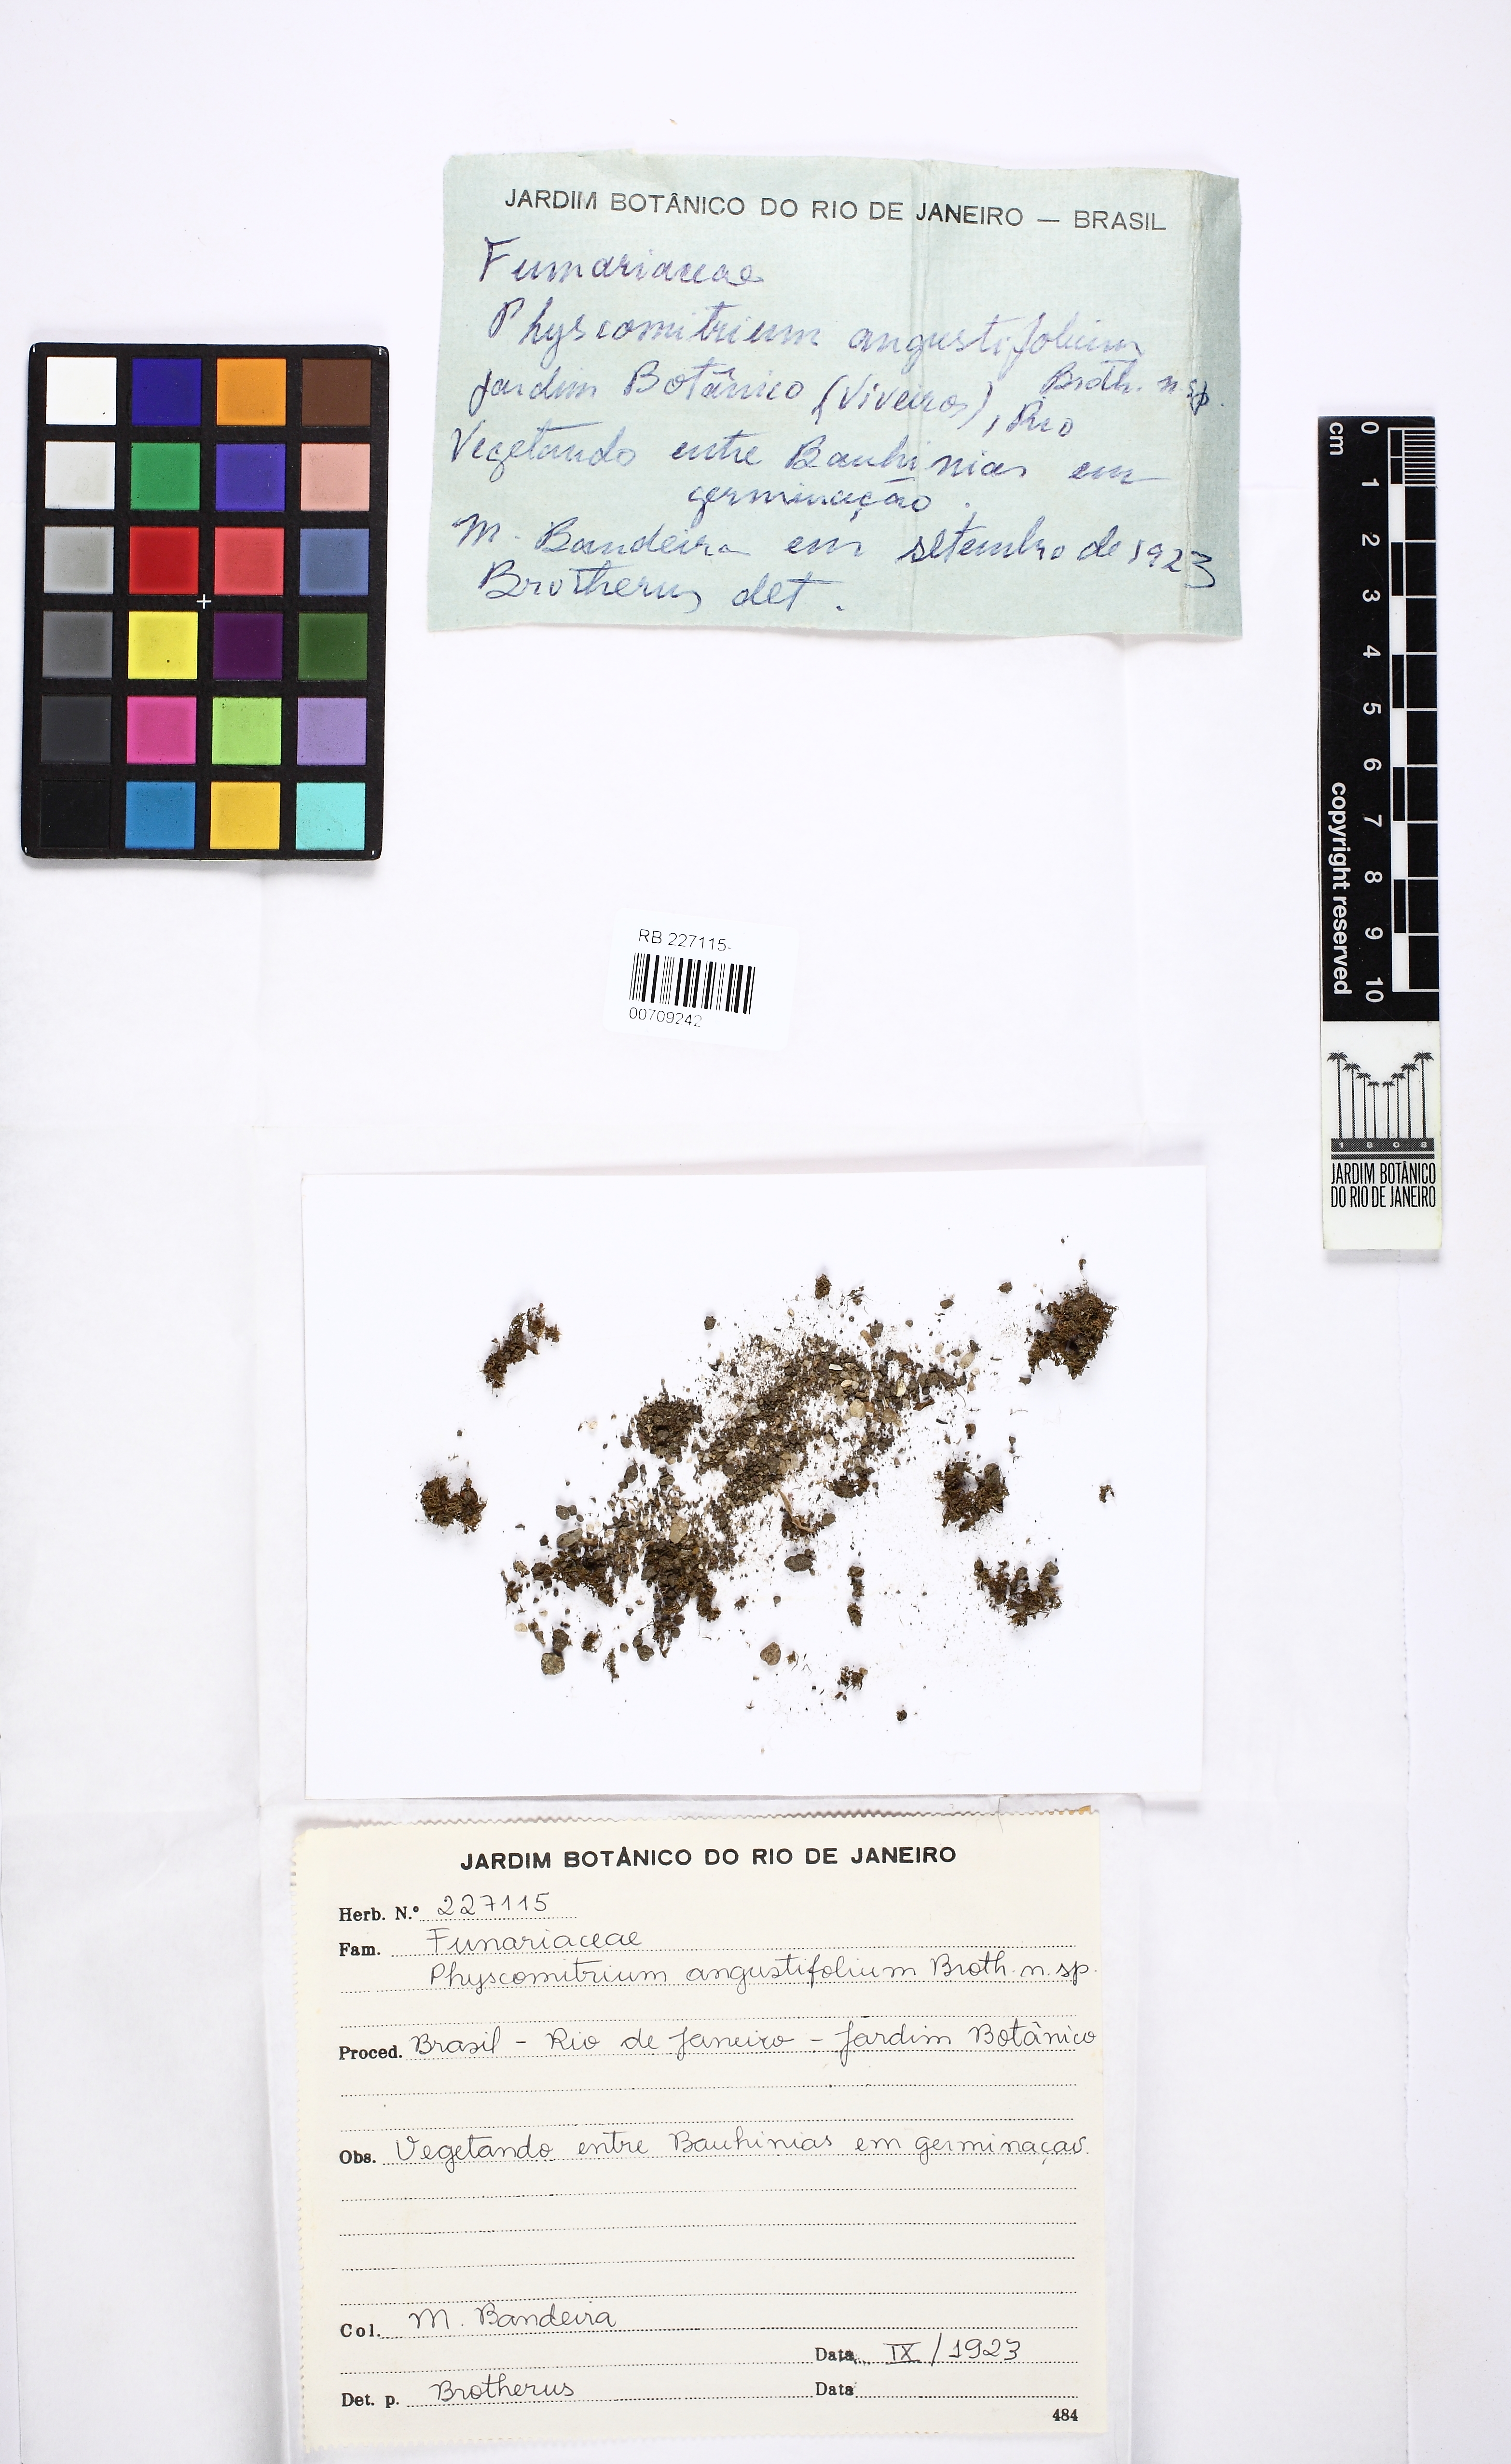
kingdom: Plantae
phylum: Bryophyta
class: Bryopsida
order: Funariales
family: Funariaceae
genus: Physcomitrium
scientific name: Physcomitrium
